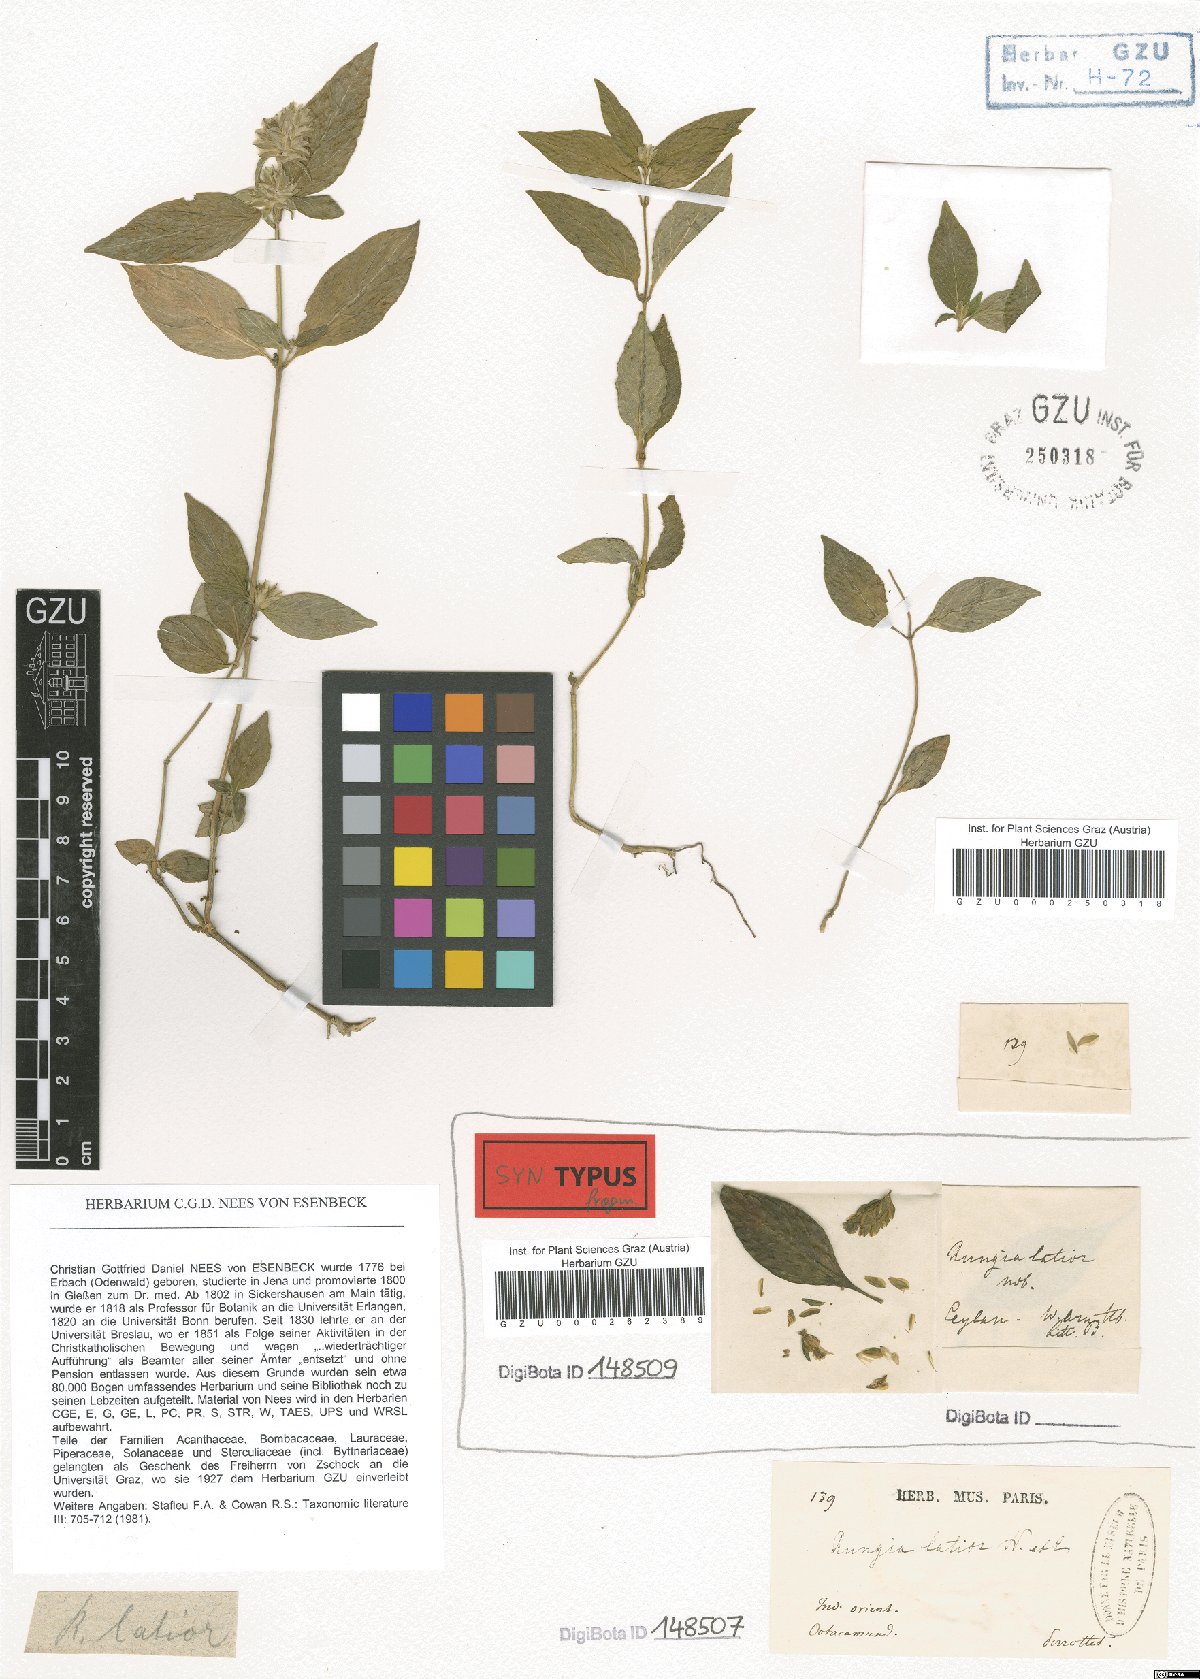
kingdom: Plantae
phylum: Tracheophyta
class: Magnoliopsida
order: Lamiales
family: Acanthaceae
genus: Rungia
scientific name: Rungia latior
